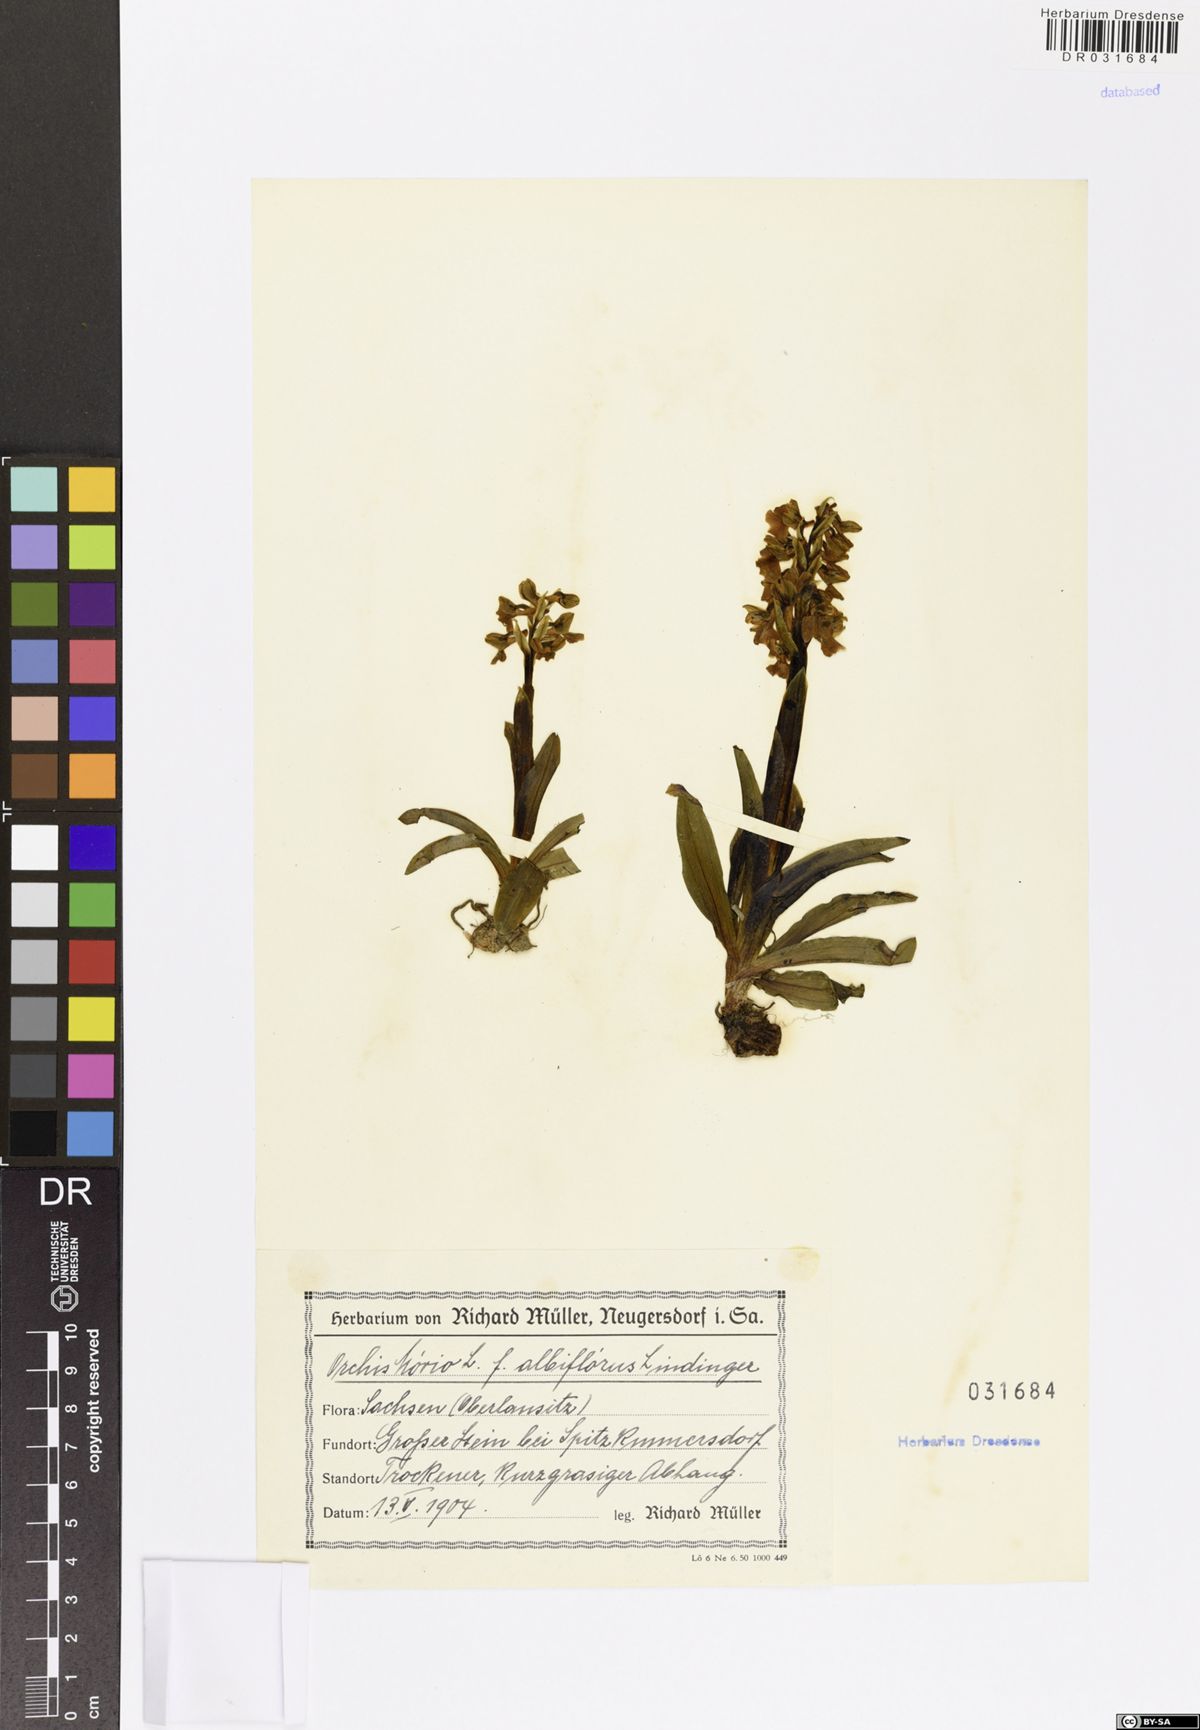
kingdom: Plantae
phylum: Tracheophyta
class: Liliopsida
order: Asparagales
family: Orchidaceae
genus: Anacamptis
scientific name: Anacamptis morio
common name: Green-winged orchid
